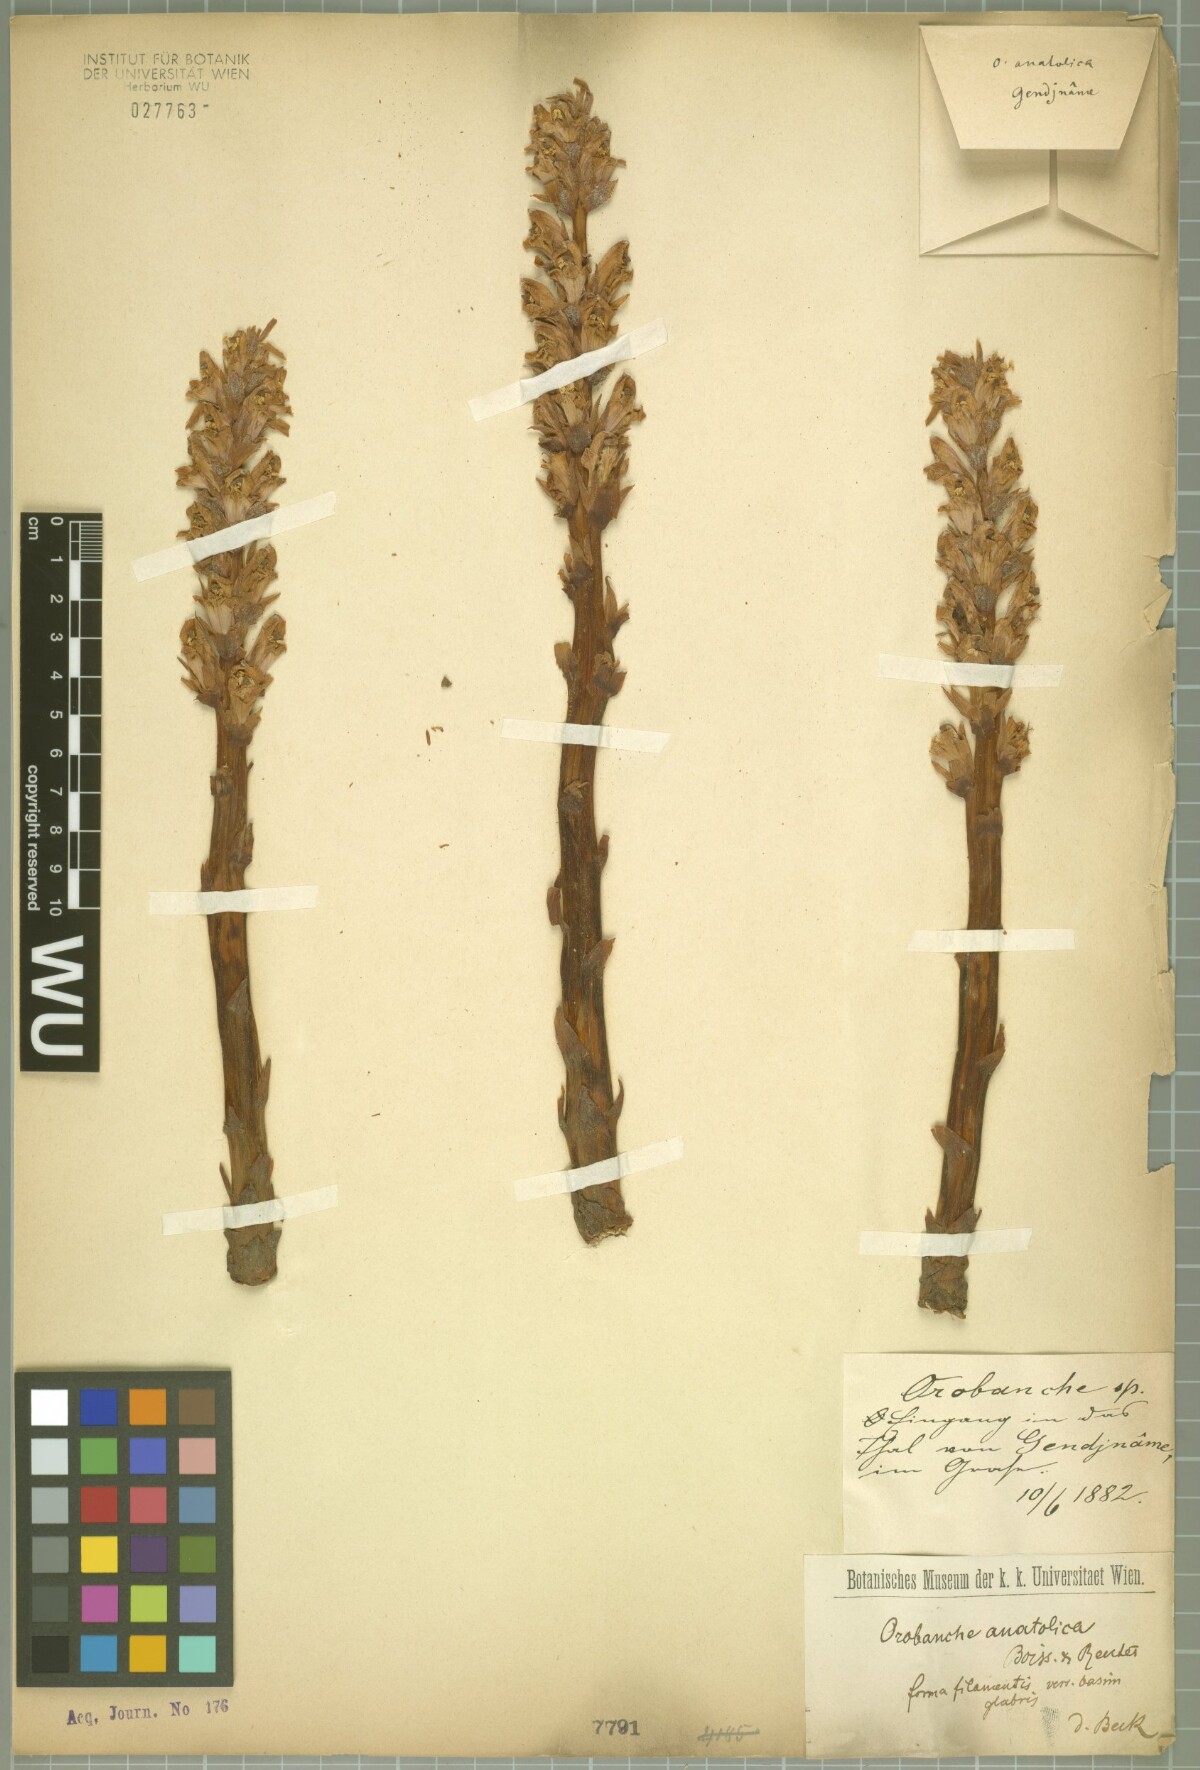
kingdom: Plantae
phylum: Tracheophyta
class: Magnoliopsida
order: Lamiales
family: Orobanchaceae
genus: Orobanche
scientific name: Orobanche anatolica
